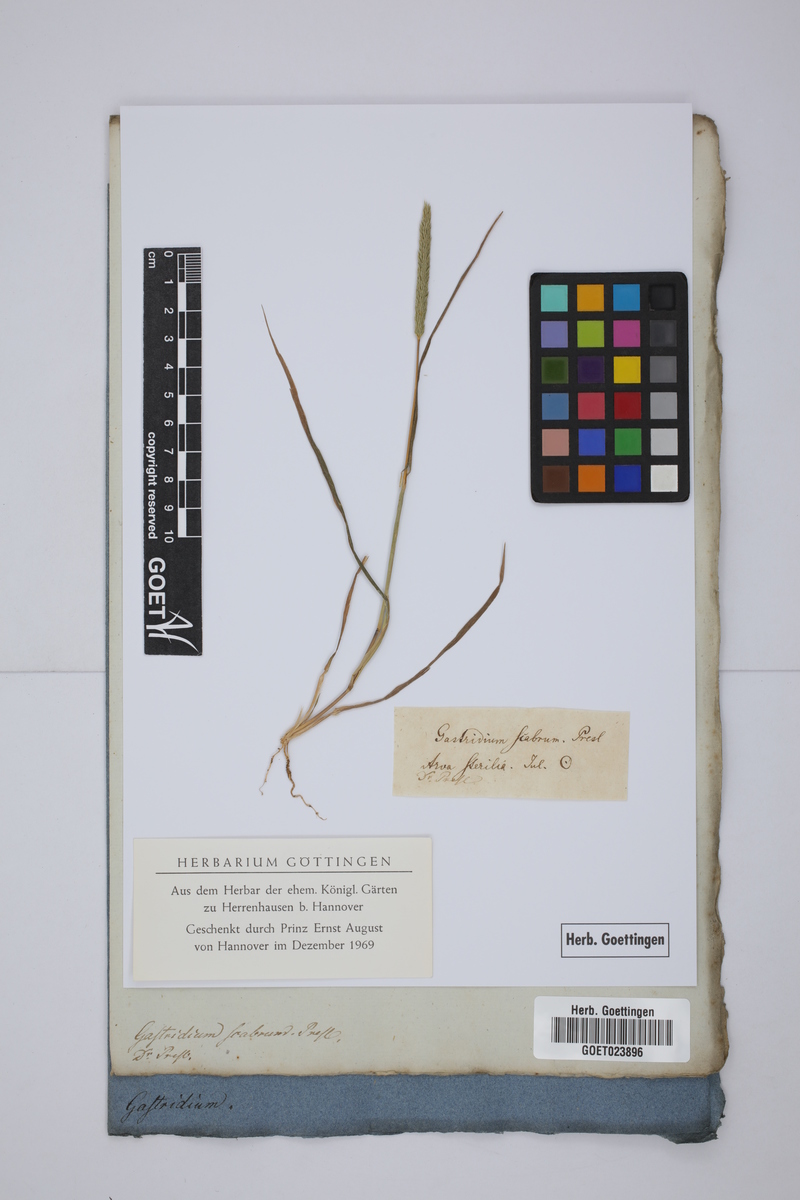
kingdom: Plantae
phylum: Tracheophyta
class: Liliopsida
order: Poales
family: Poaceae
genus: Gastridium
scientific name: Gastridium ventricosum
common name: Nit-grass
